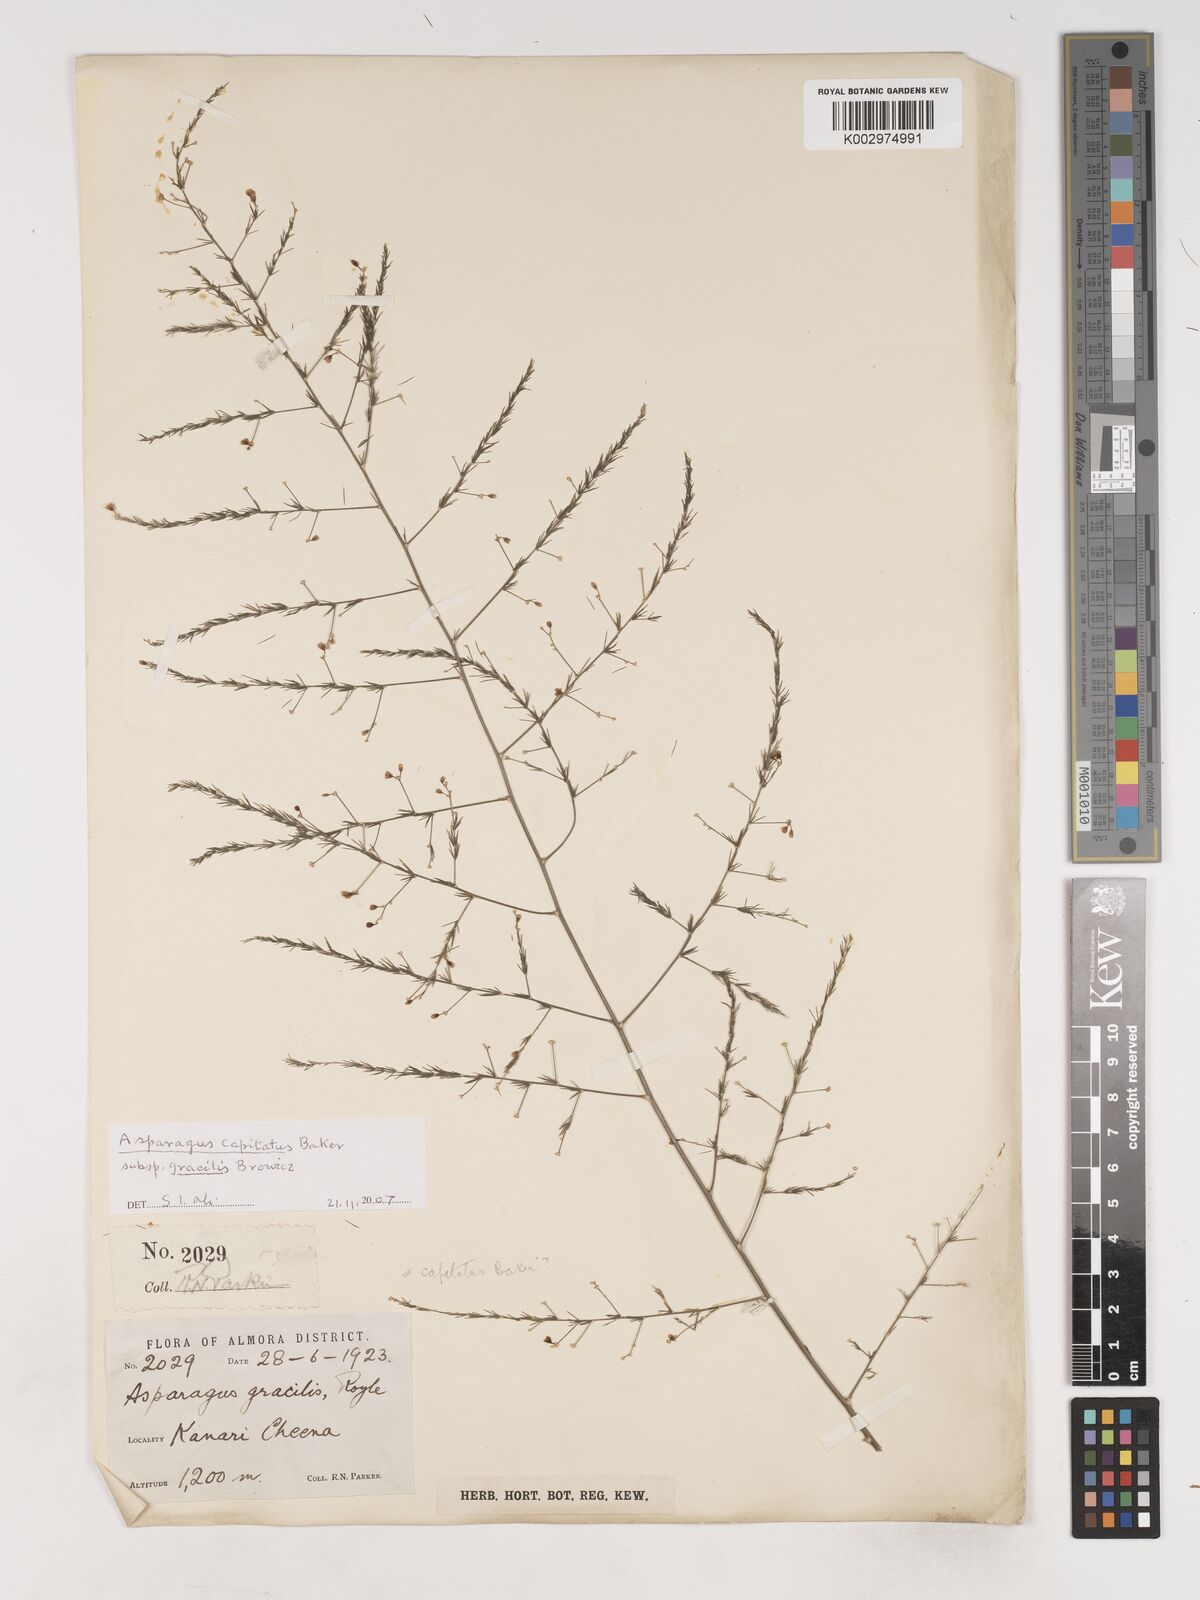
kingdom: Plantae
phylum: Tracheophyta
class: Liliopsida
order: Asparagales
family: Asparagaceae
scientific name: Asparagaceae
